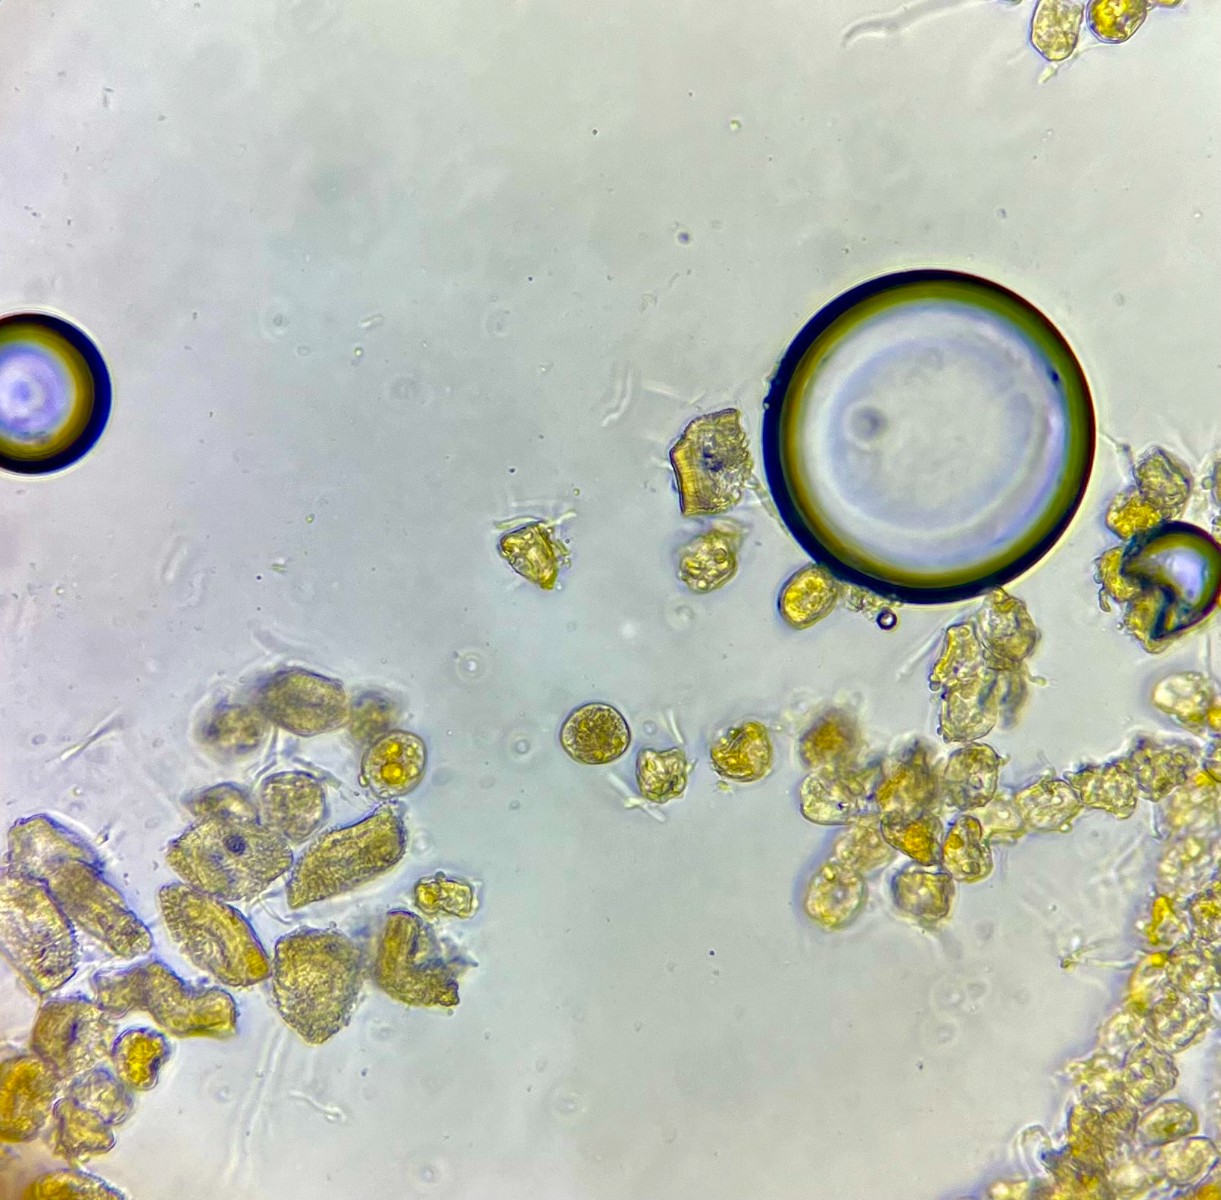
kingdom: Fungi
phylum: Basidiomycota
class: Pucciniomycetes
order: Pucciniales
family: Pucciniaceae
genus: Puccinia
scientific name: Puccinia uliginosa
